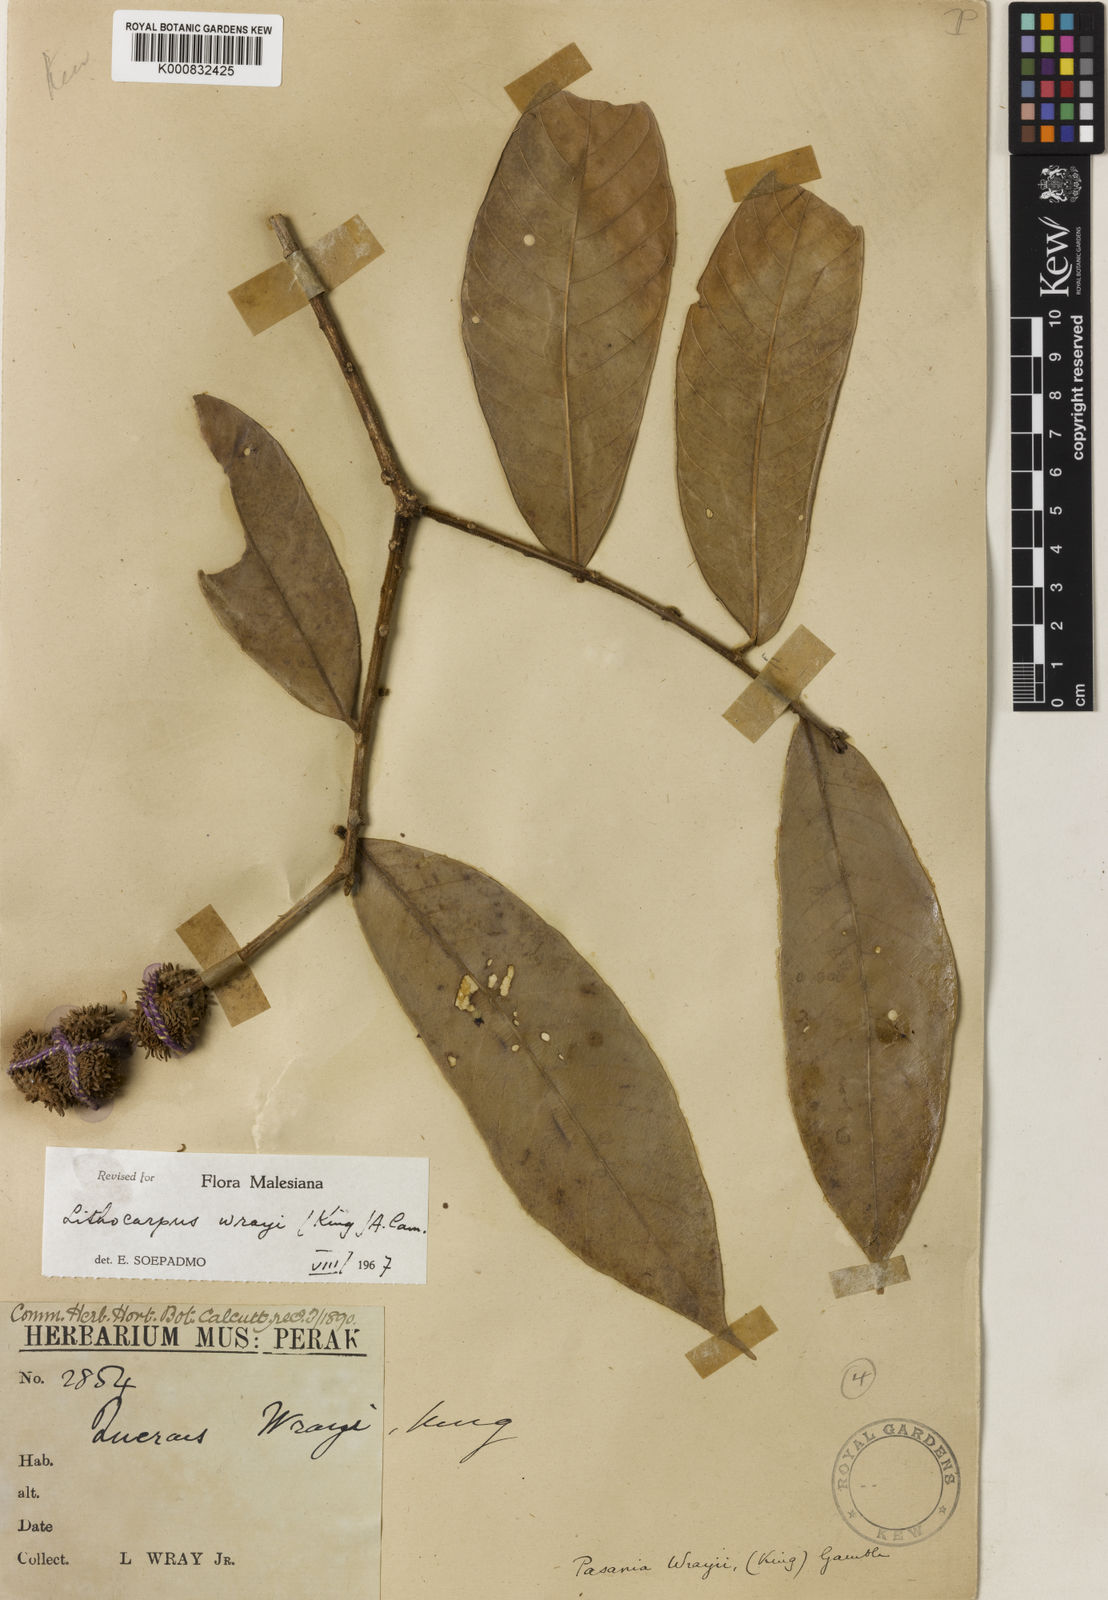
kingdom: Plantae
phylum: Tracheophyta
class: Magnoliopsida
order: Fagales
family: Fagaceae
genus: Lithocarpus
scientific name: Lithocarpus wrayi
